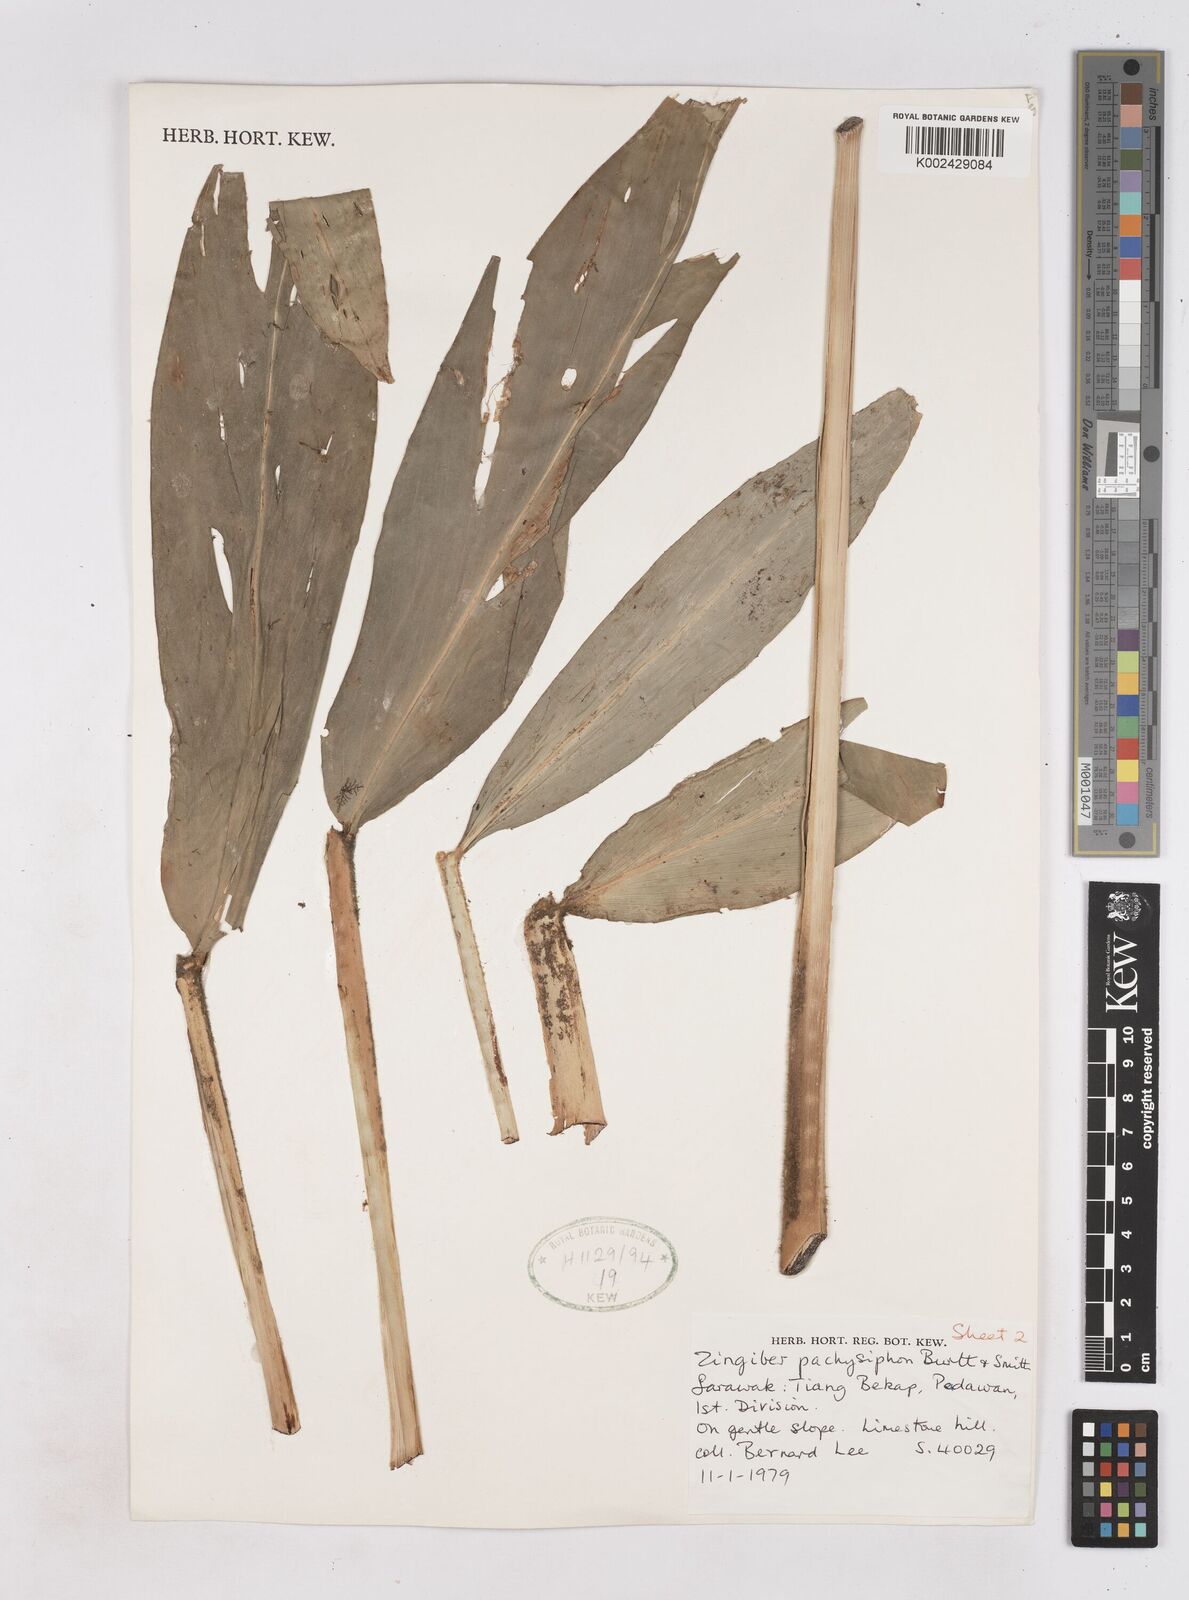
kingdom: Plantae
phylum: Tracheophyta
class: Liliopsida
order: Zingiberales
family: Zingiberaceae
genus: Zingiber
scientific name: Zingiber puberulum
